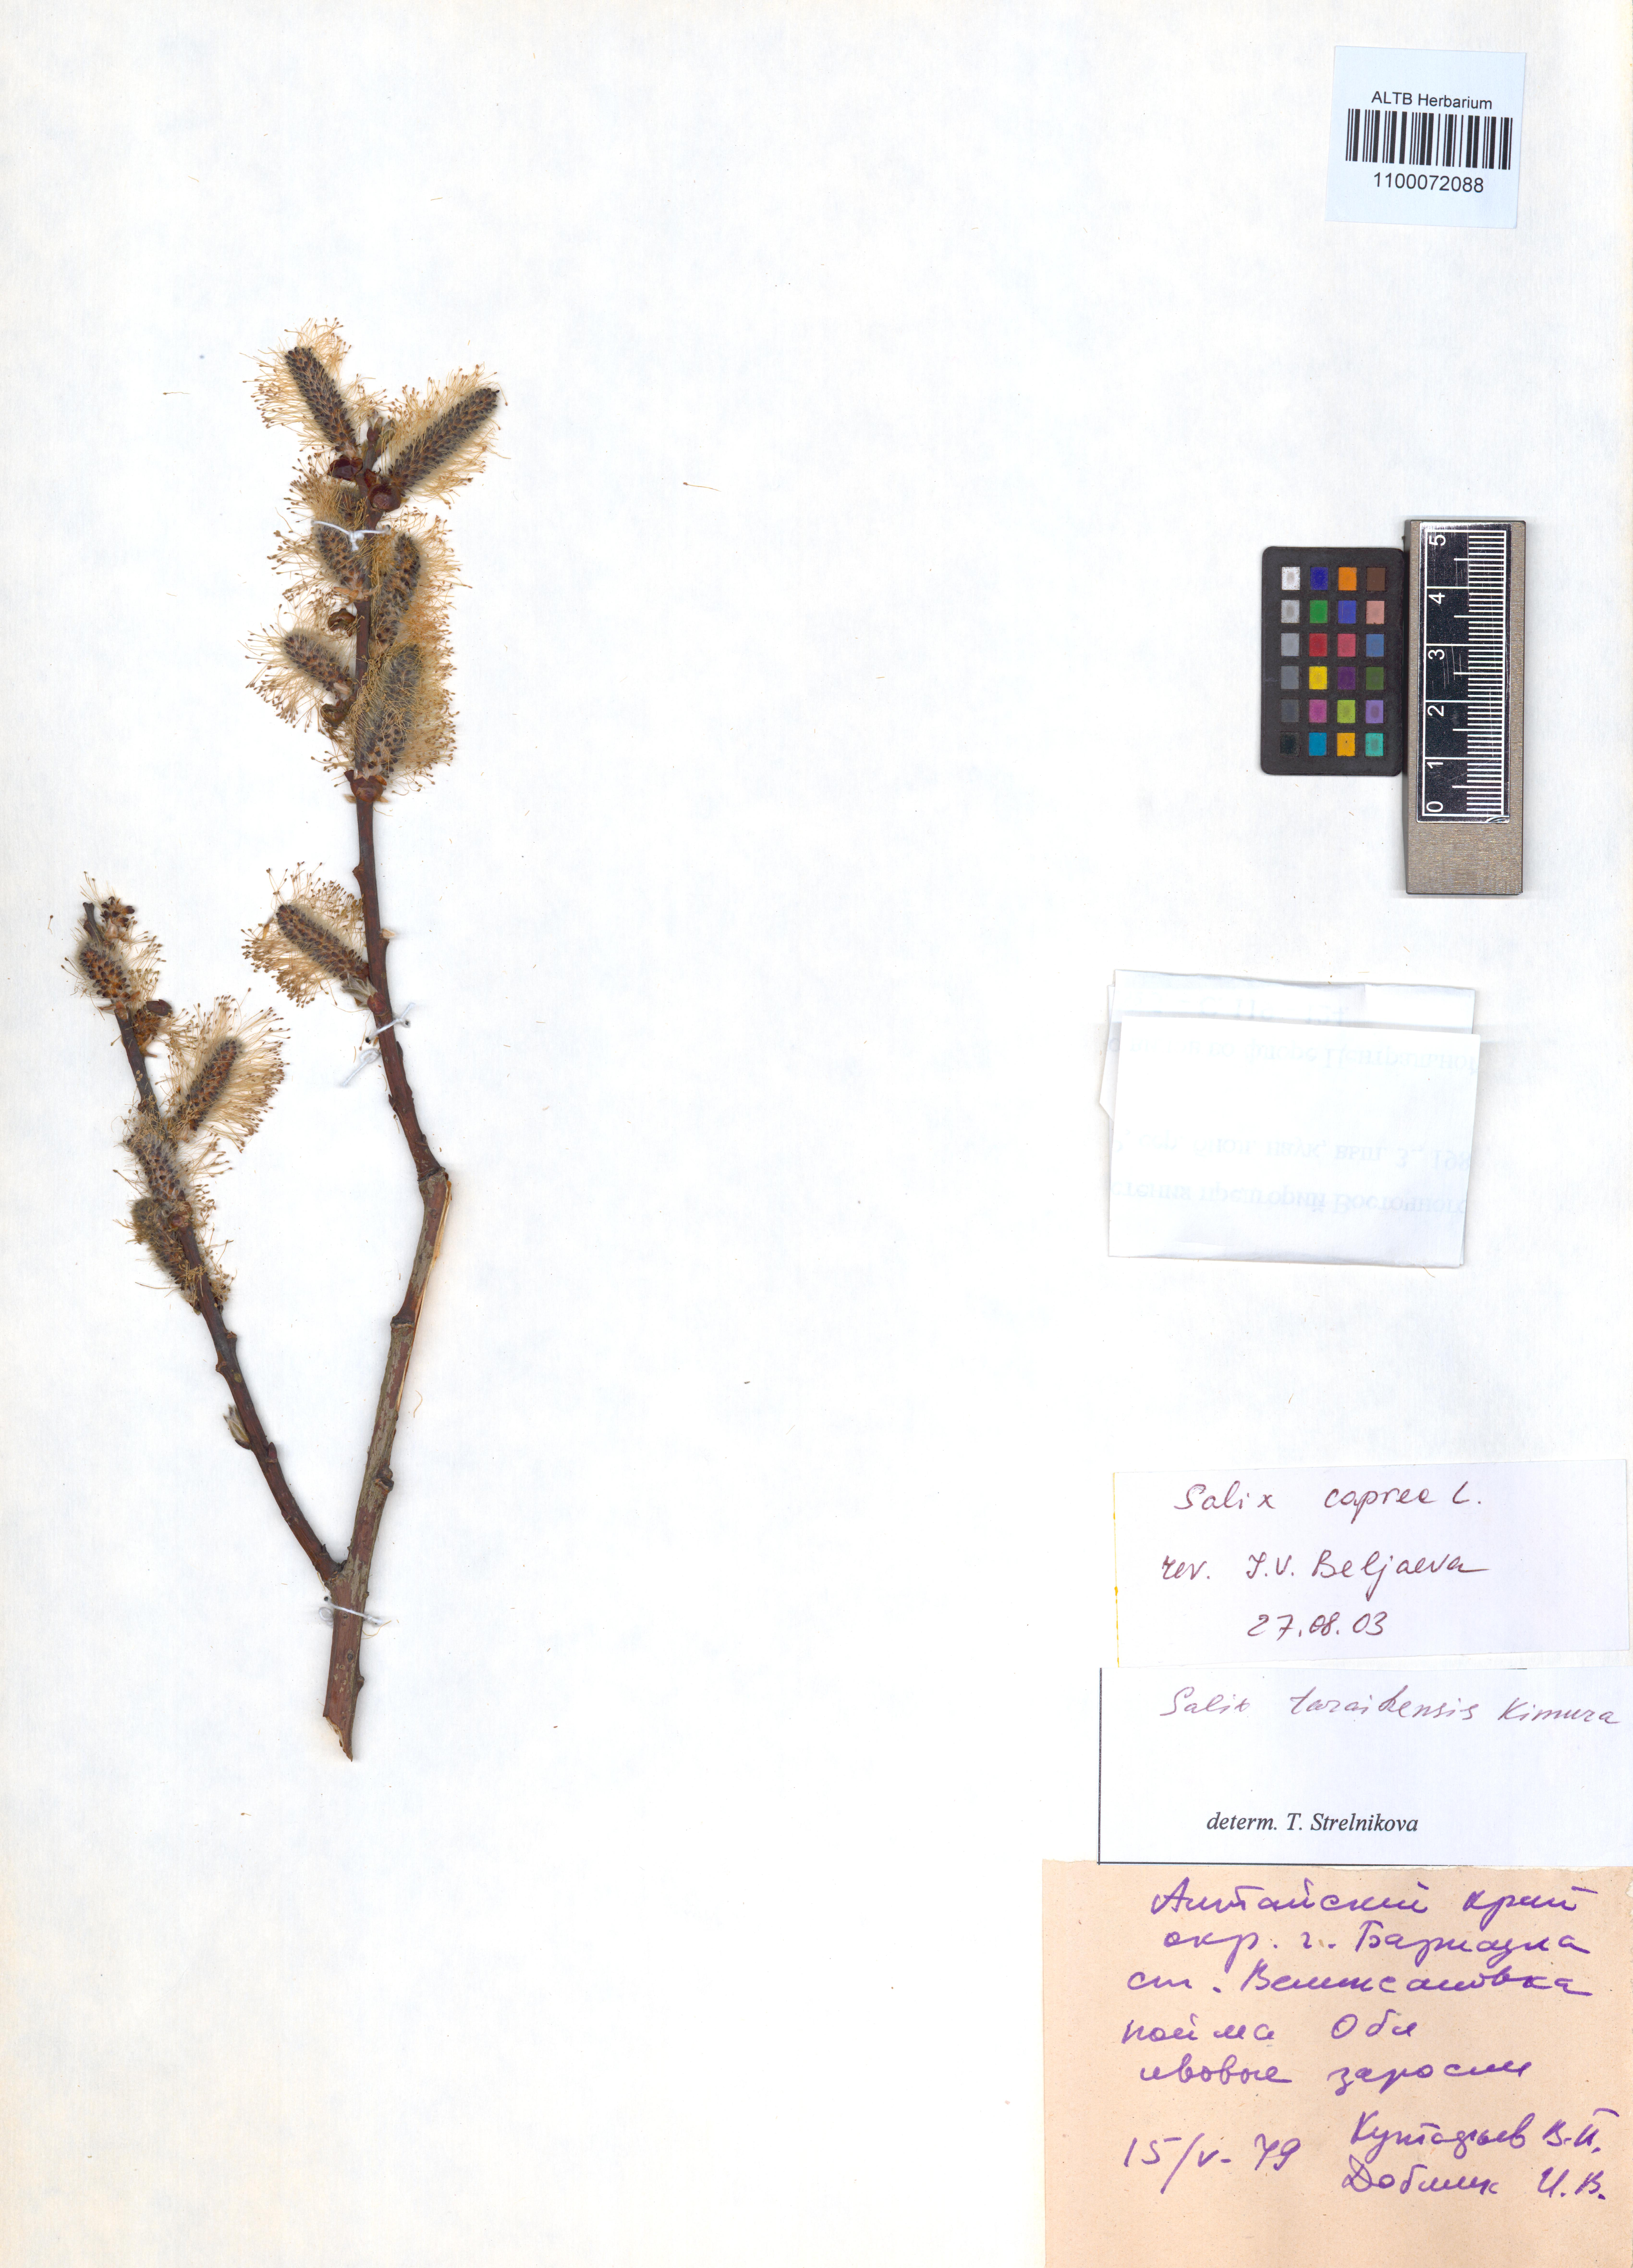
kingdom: Plantae
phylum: Tracheophyta
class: Magnoliopsida
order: Malpighiales
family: Salicaceae
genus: Salix
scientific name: Salix caprea
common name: Goat willow
